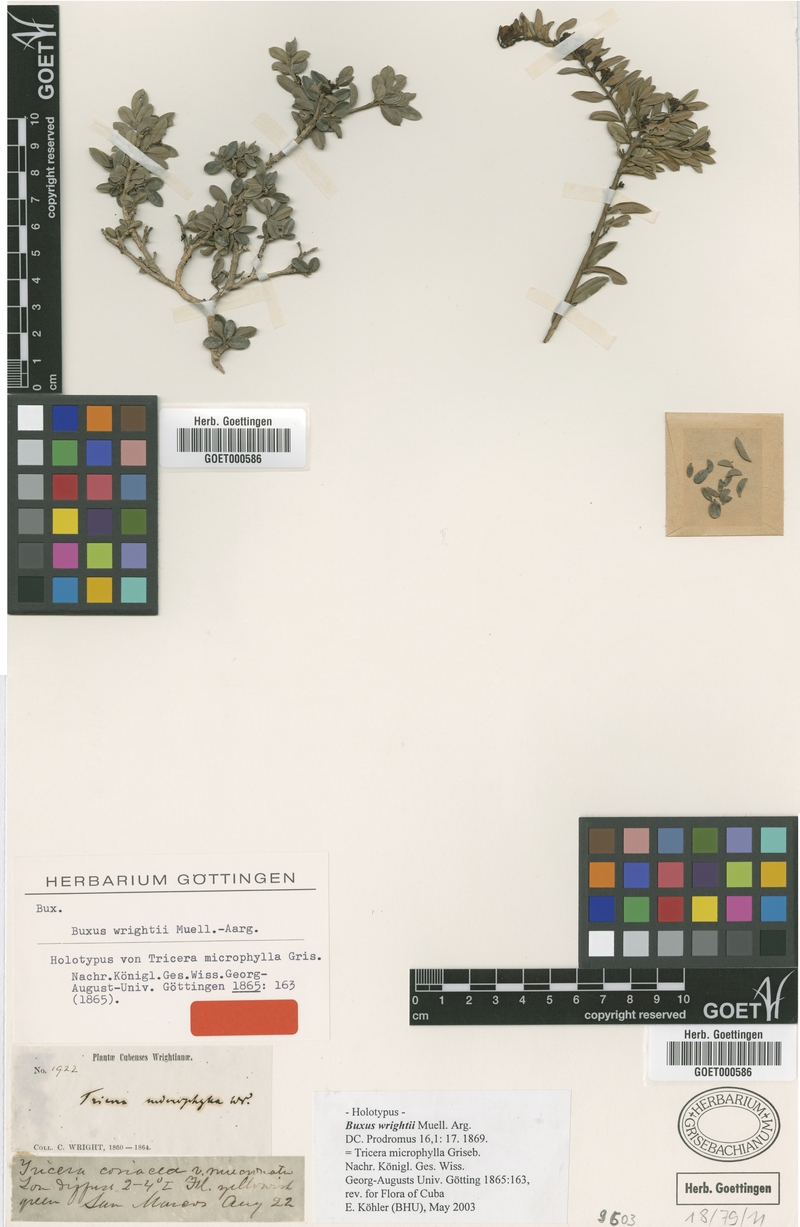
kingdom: Plantae
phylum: Tracheophyta
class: Magnoliopsida
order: Buxales
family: Buxaceae
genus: Buxus
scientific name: Buxus wrightii
